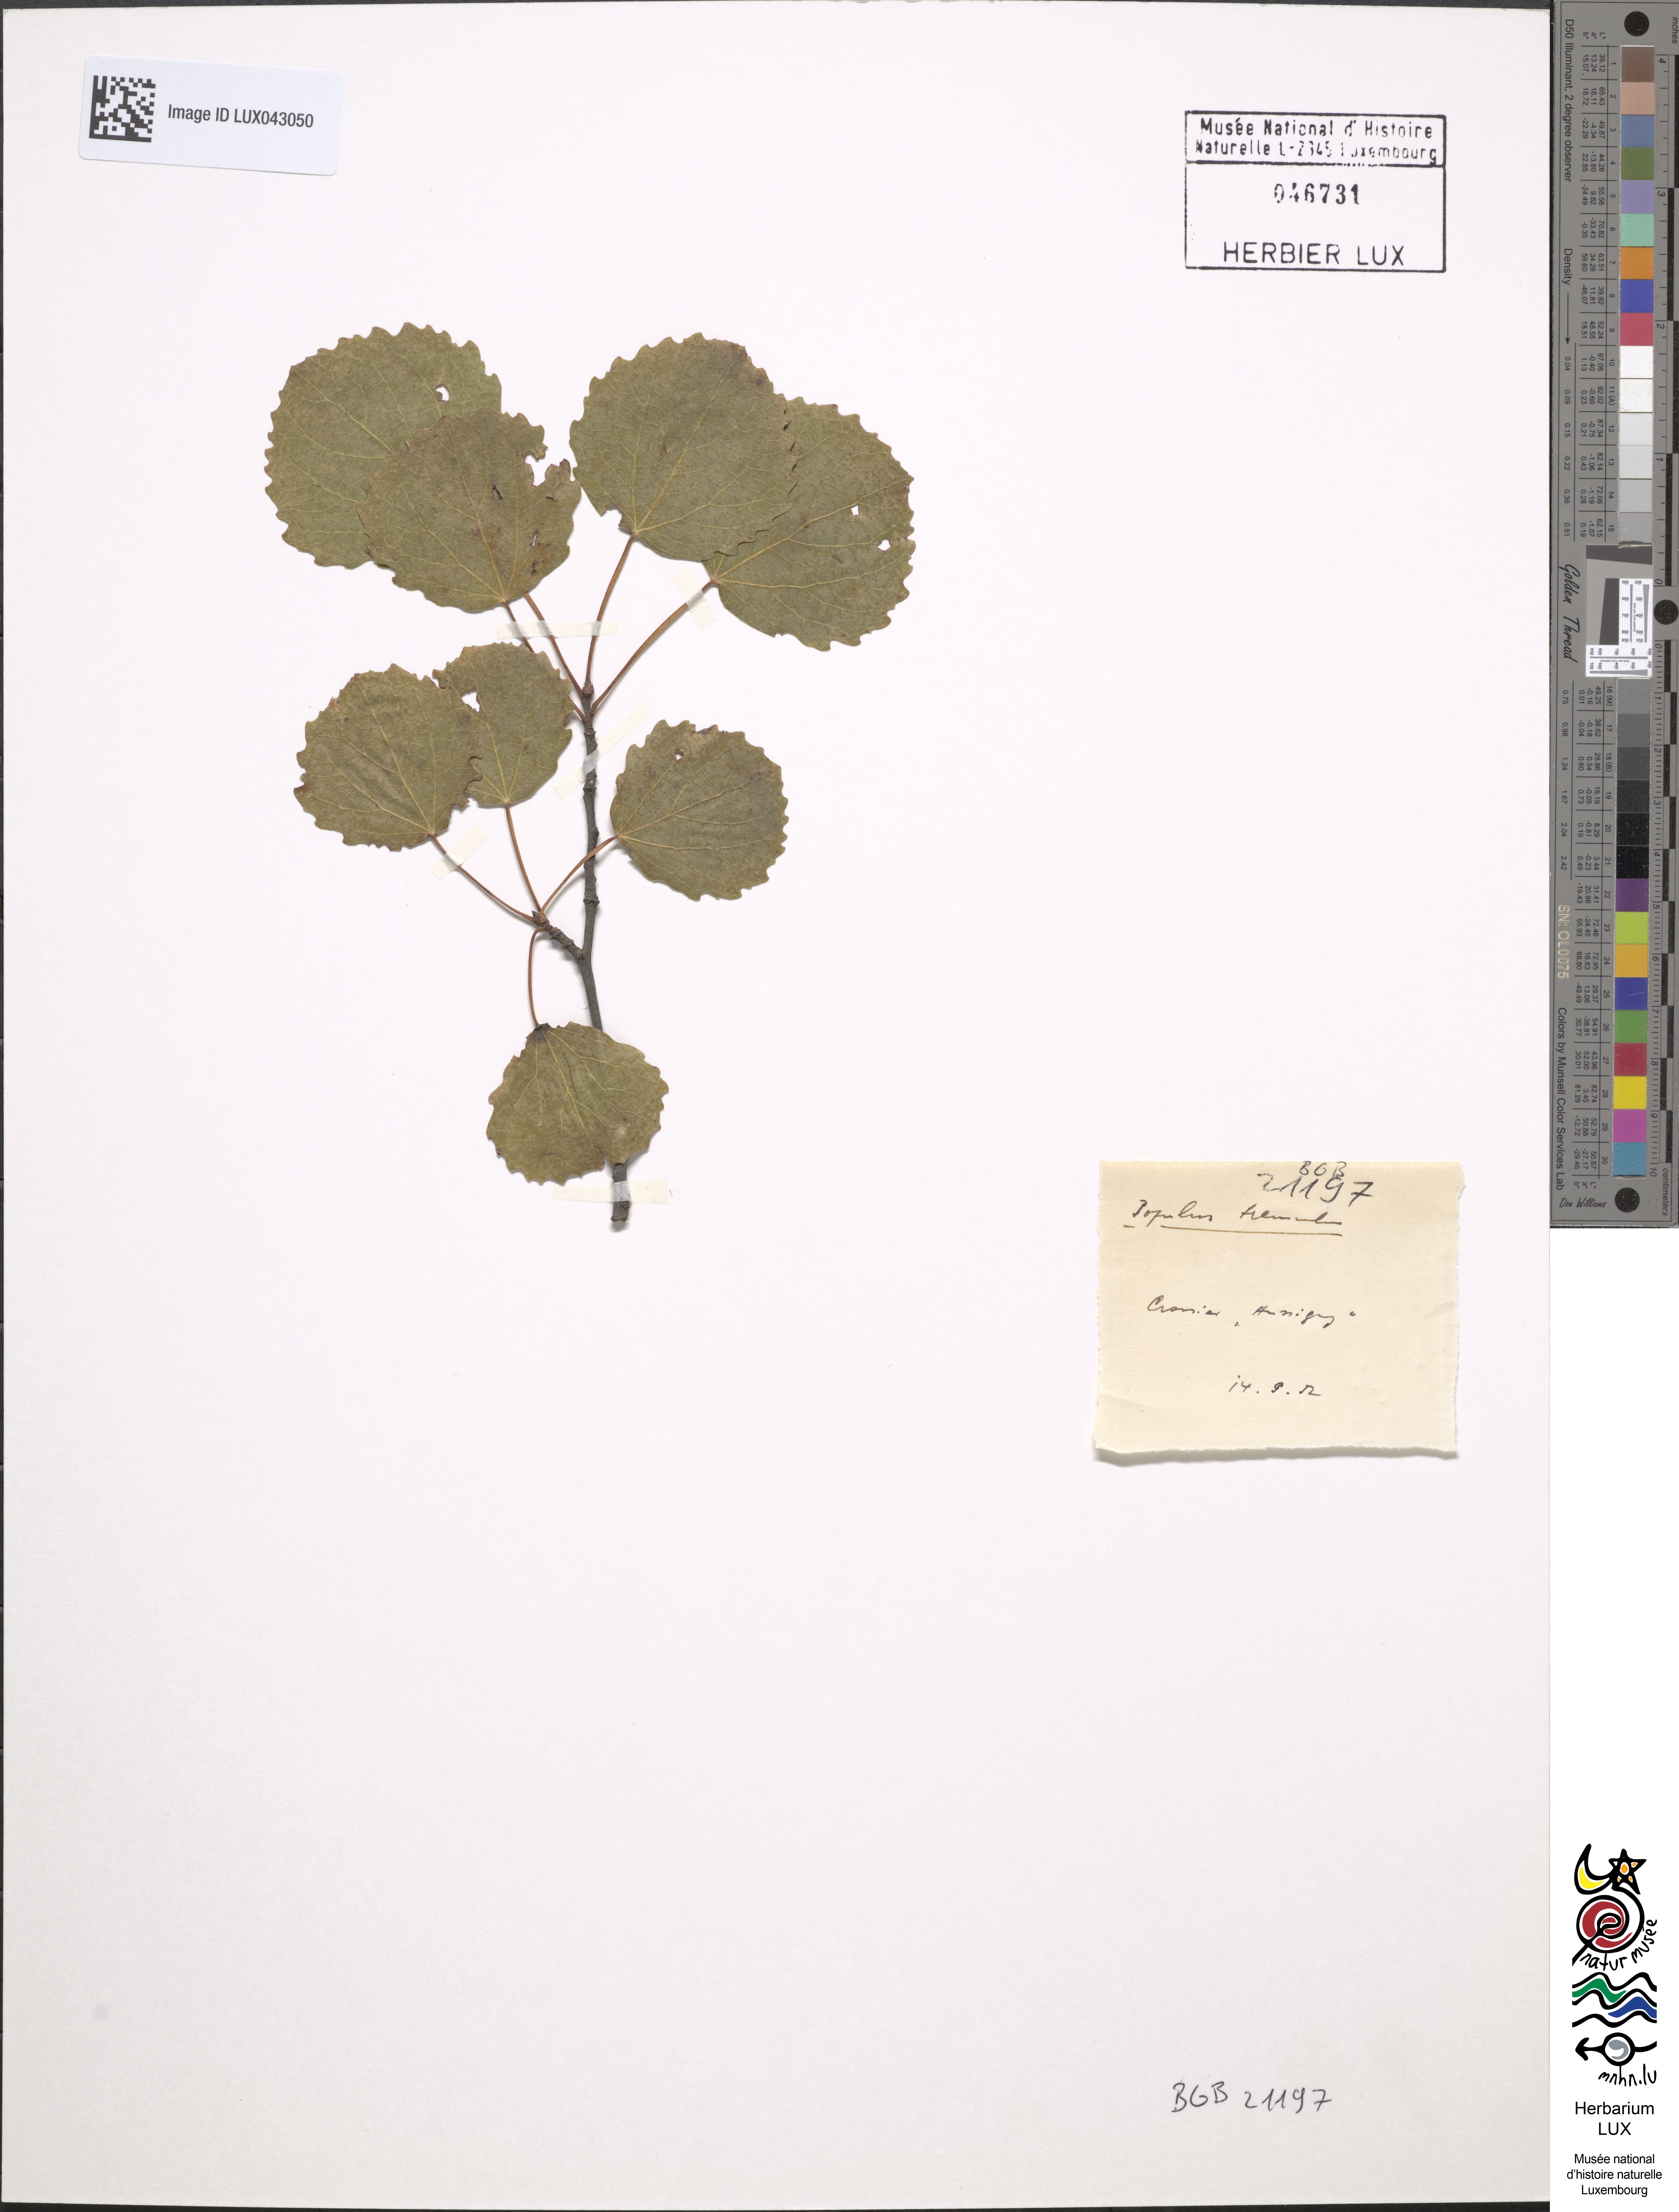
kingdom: Plantae
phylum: Tracheophyta
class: Magnoliopsida
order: Malpighiales
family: Salicaceae
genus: Populus
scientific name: Populus tremula
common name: European aspen
